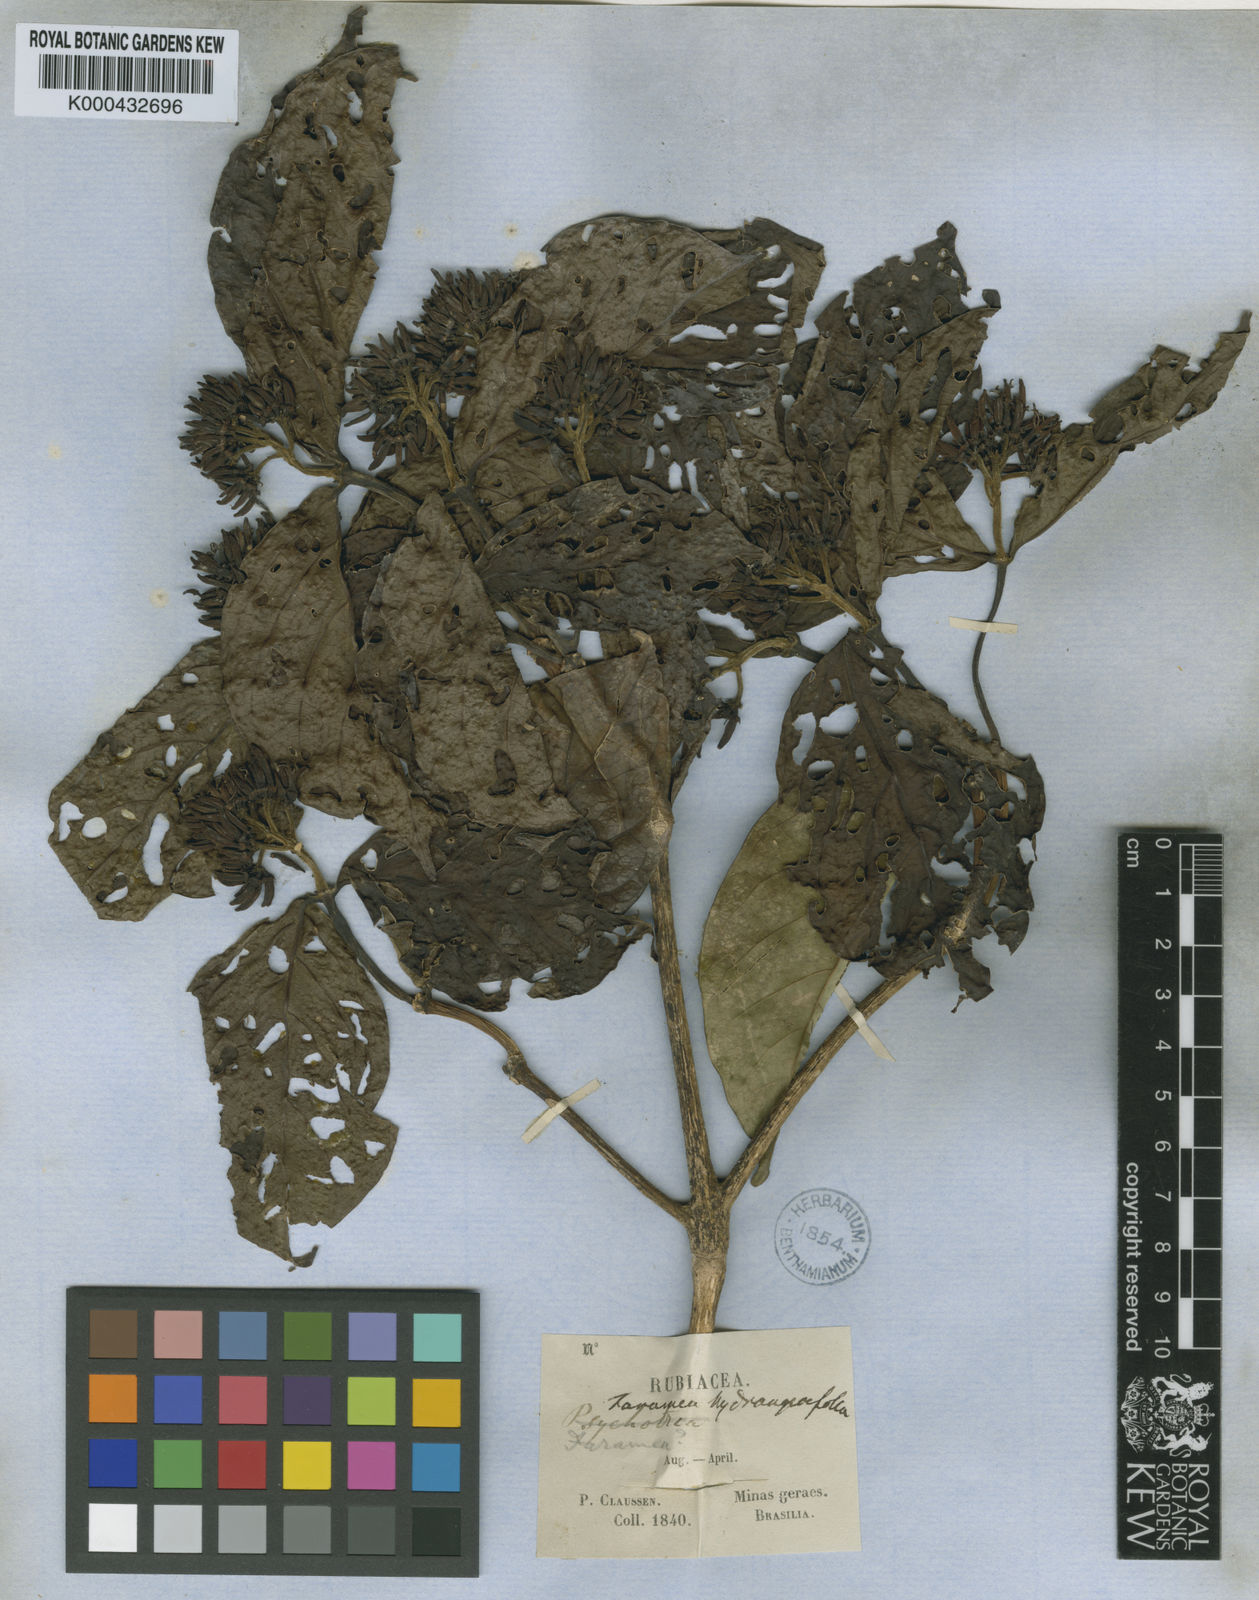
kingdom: Plantae
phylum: Tracheophyta
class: Magnoliopsida
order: Gentianales
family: Rubiaceae
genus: Coussarea
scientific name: Coussarea
